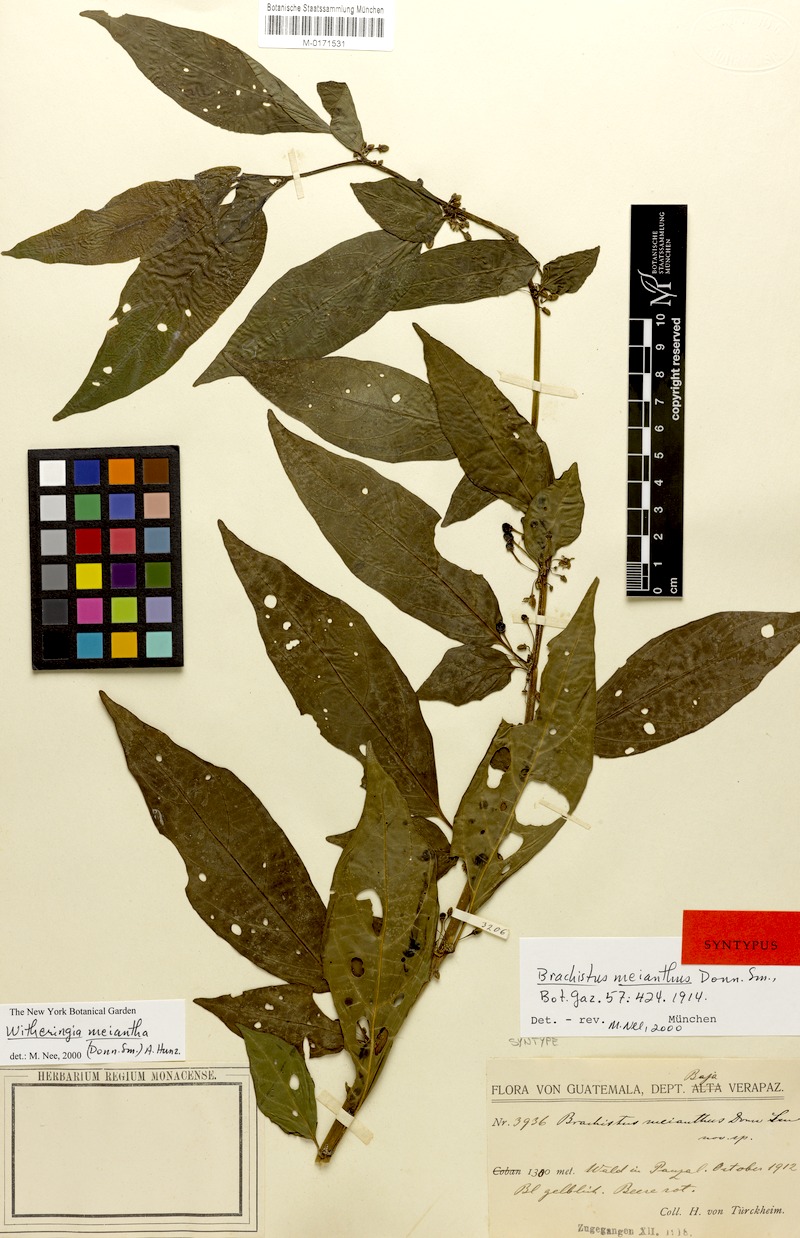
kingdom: Plantae
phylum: Tracheophyta
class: Magnoliopsida
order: Solanales
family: Solanaceae
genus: Witheringia
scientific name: Witheringia meiantha
